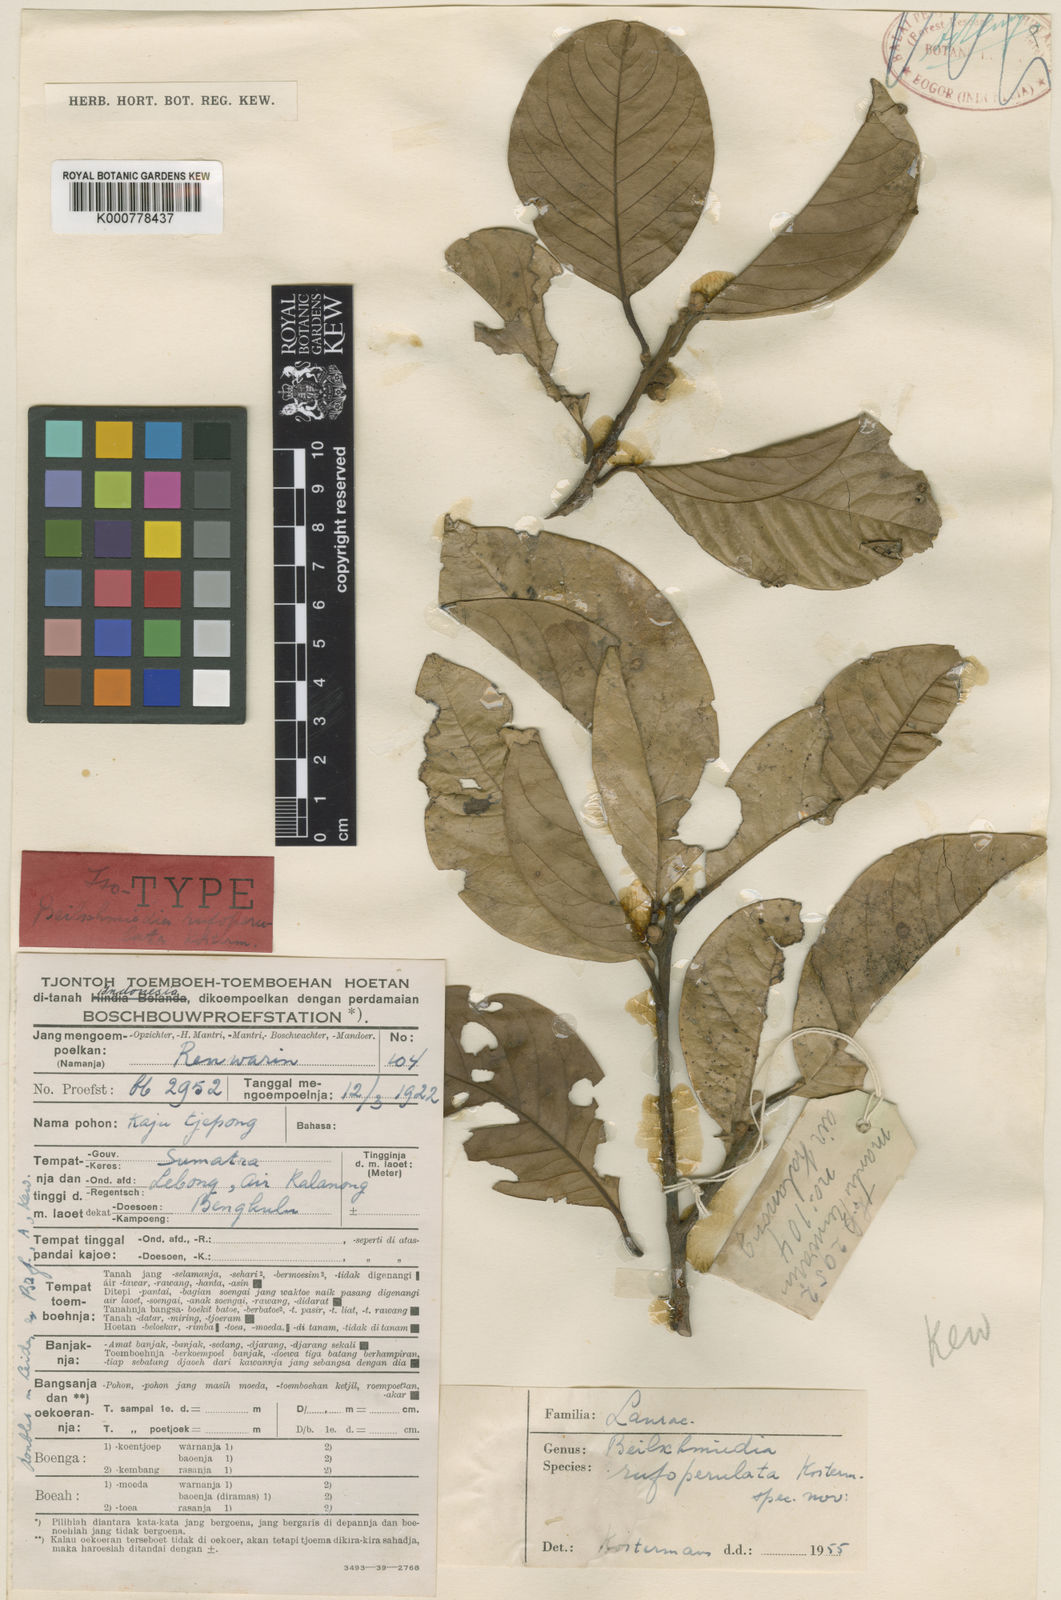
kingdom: Plantae
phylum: Tracheophyta
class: Magnoliopsida
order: Laurales
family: Lauraceae
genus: Beilschmiedia
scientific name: Beilschmiedia rufoperulata
